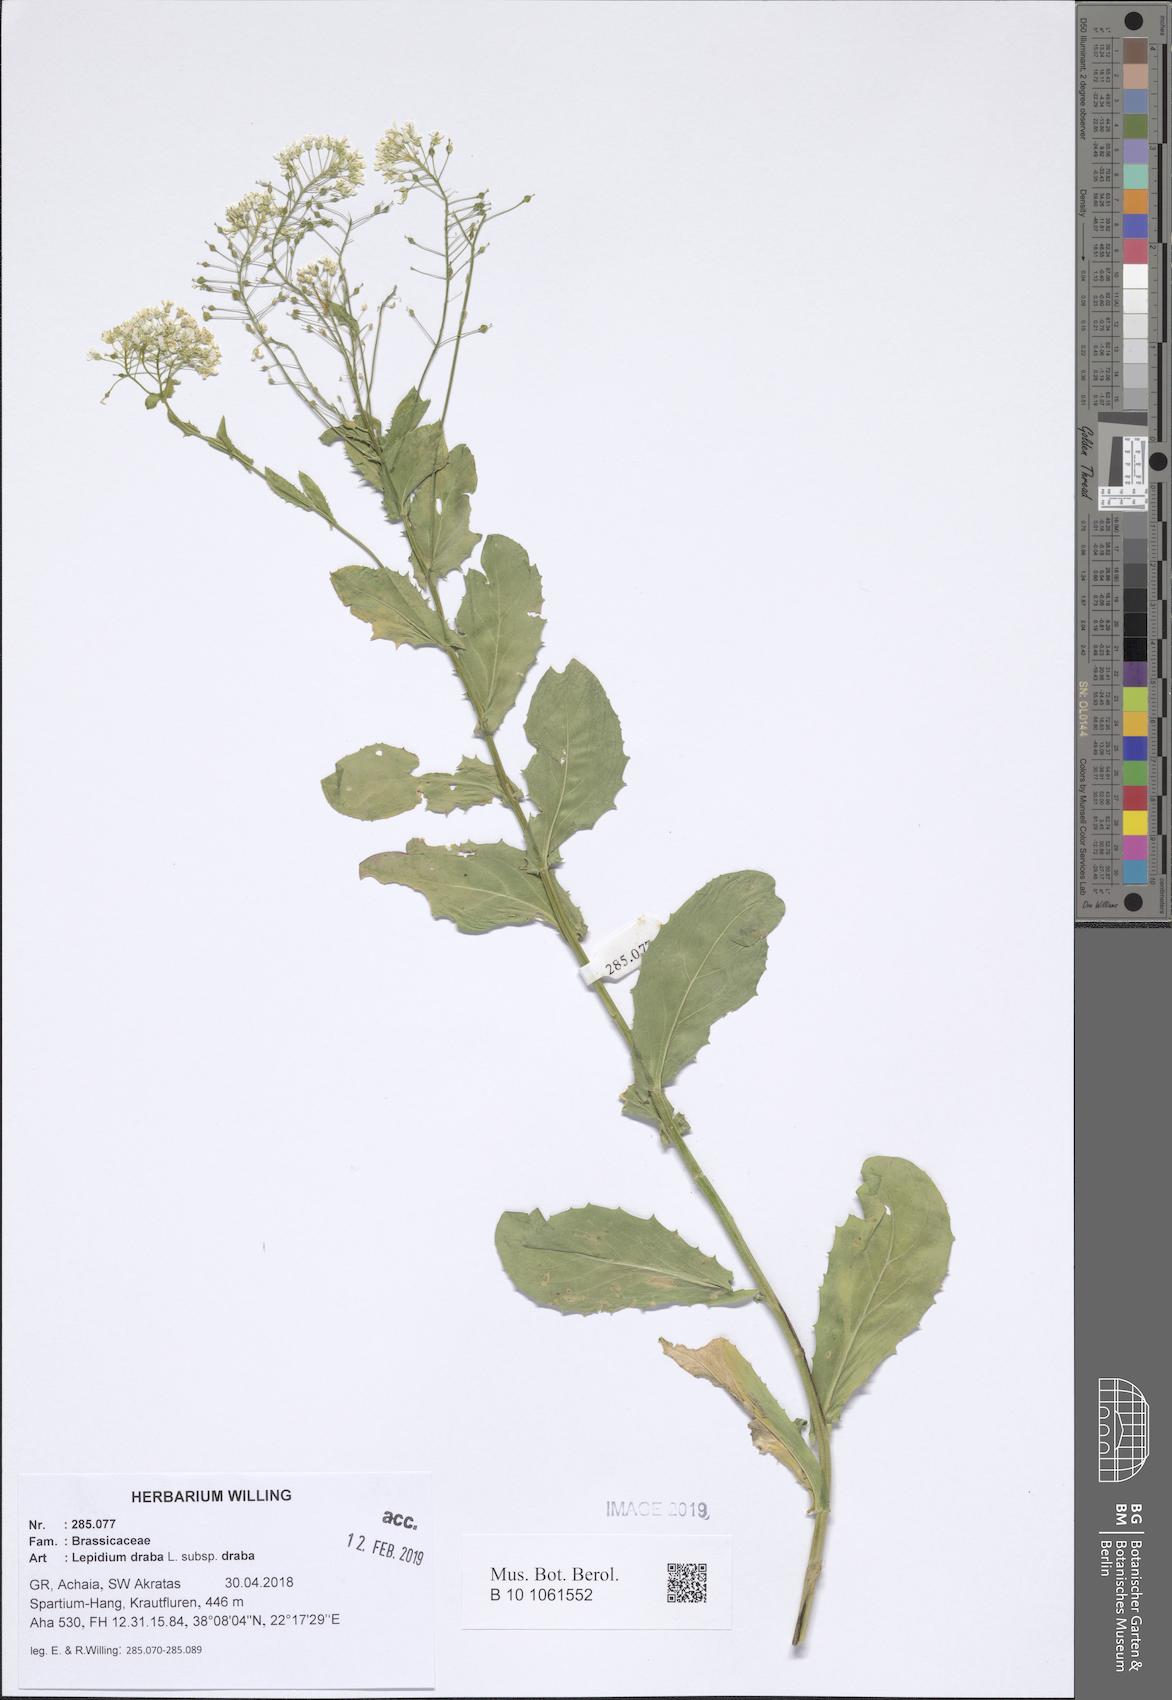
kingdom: Plantae
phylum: Tracheophyta
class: Magnoliopsida
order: Brassicales
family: Brassicaceae
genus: Lepidium
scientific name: Lepidium draba
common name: Hoary cress
